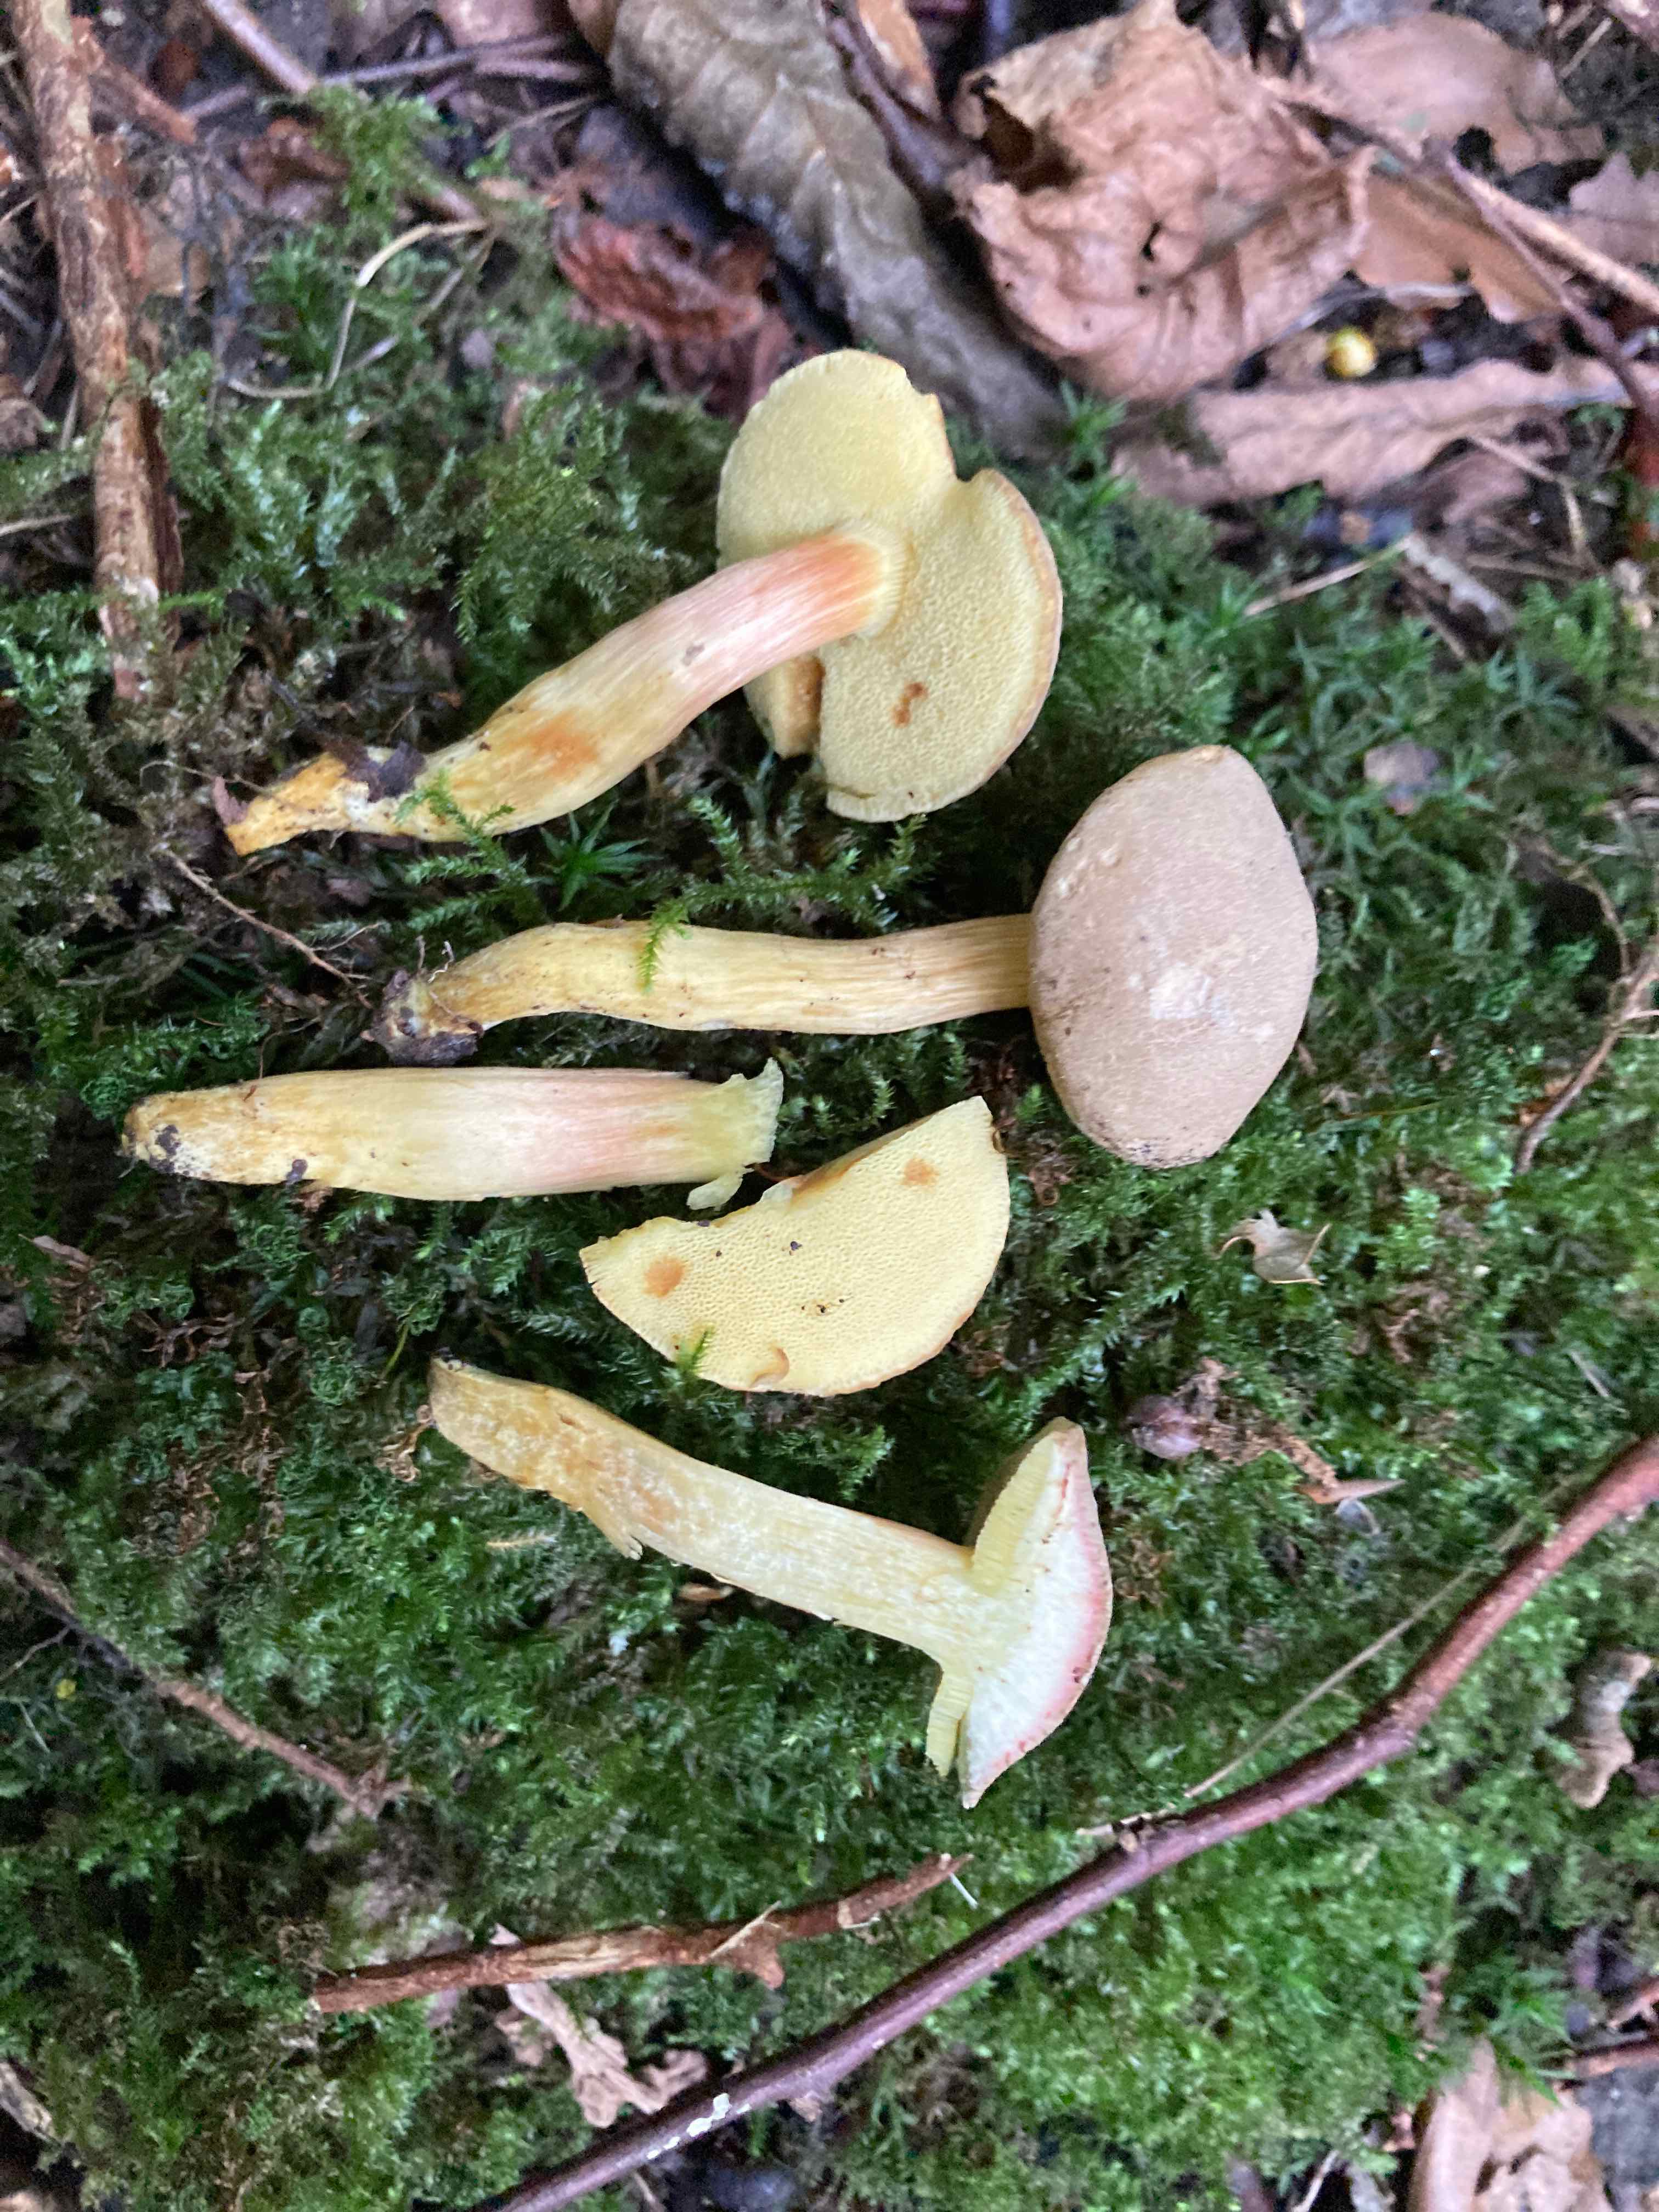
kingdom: Fungi
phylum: Basidiomycota
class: Agaricomycetes
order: Boletales
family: Boletaceae
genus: Hortiboletus
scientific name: Hortiboletus engelii
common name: fersken-rørhat
